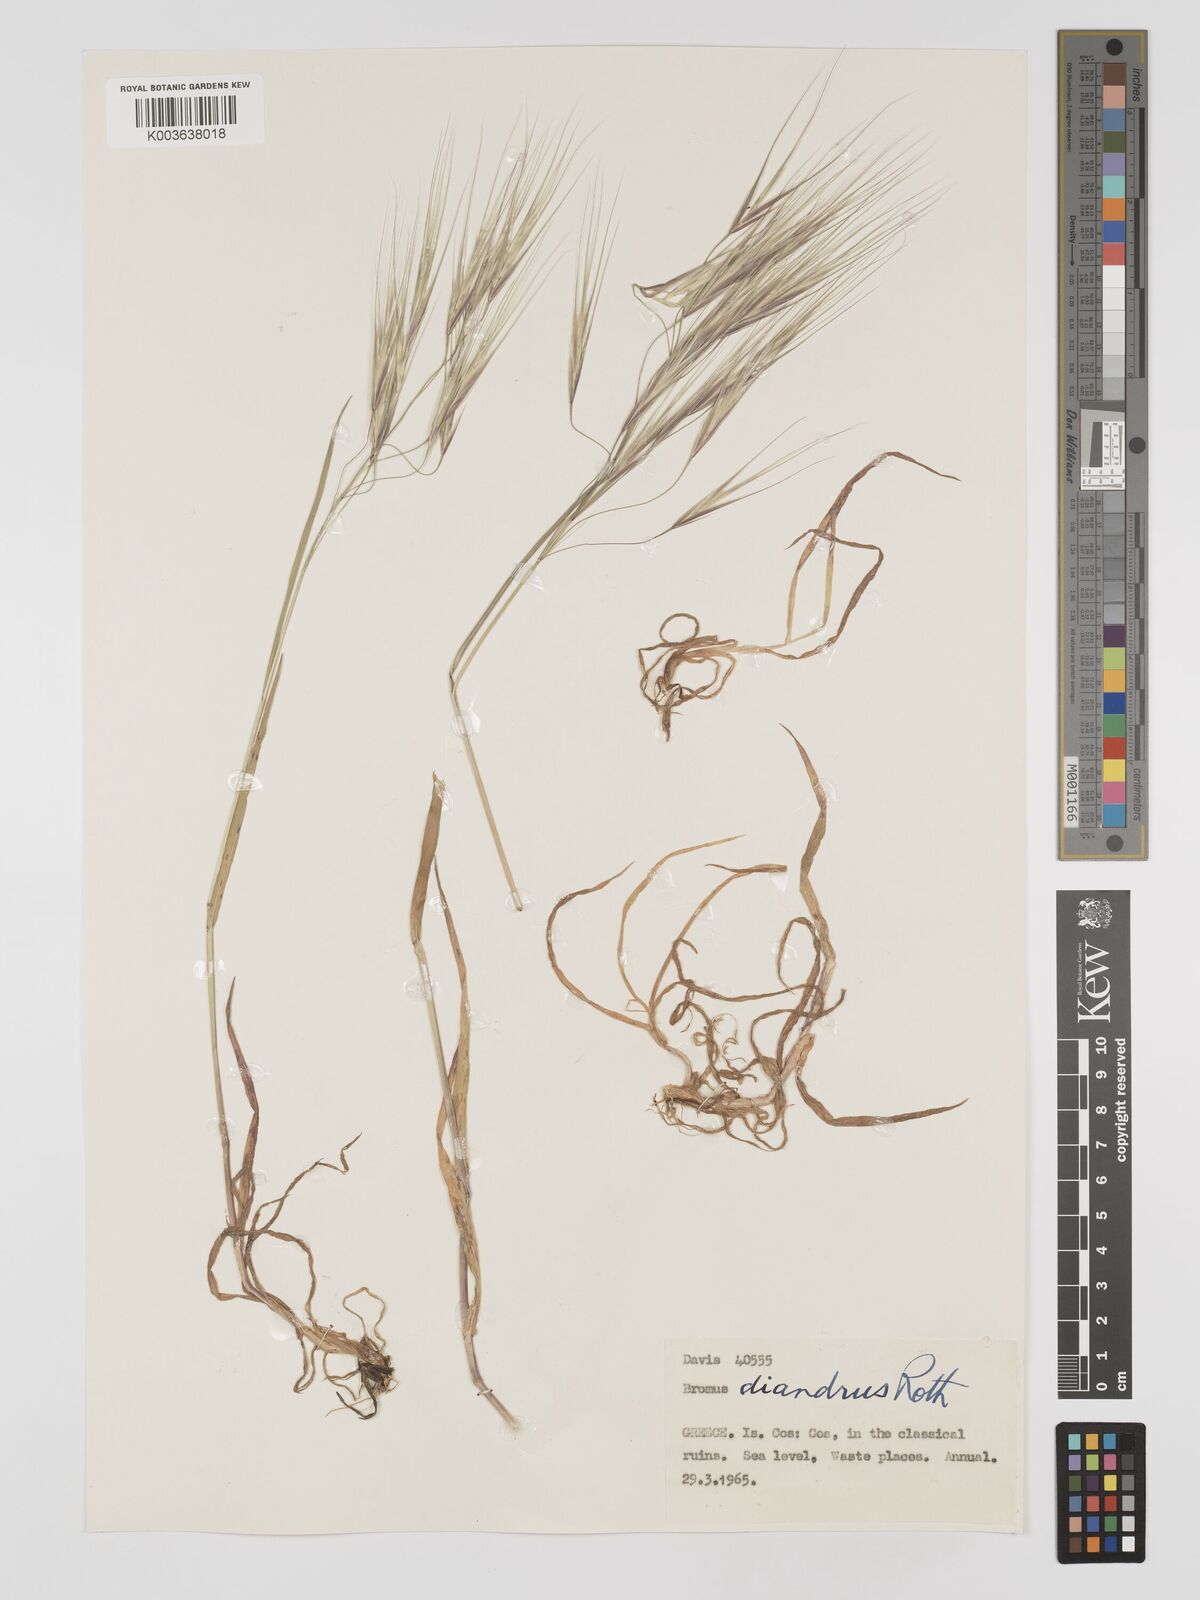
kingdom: Plantae
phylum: Tracheophyta
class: Liliopsida
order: Poales
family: Poaceae
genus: Bromus
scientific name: Bromus
